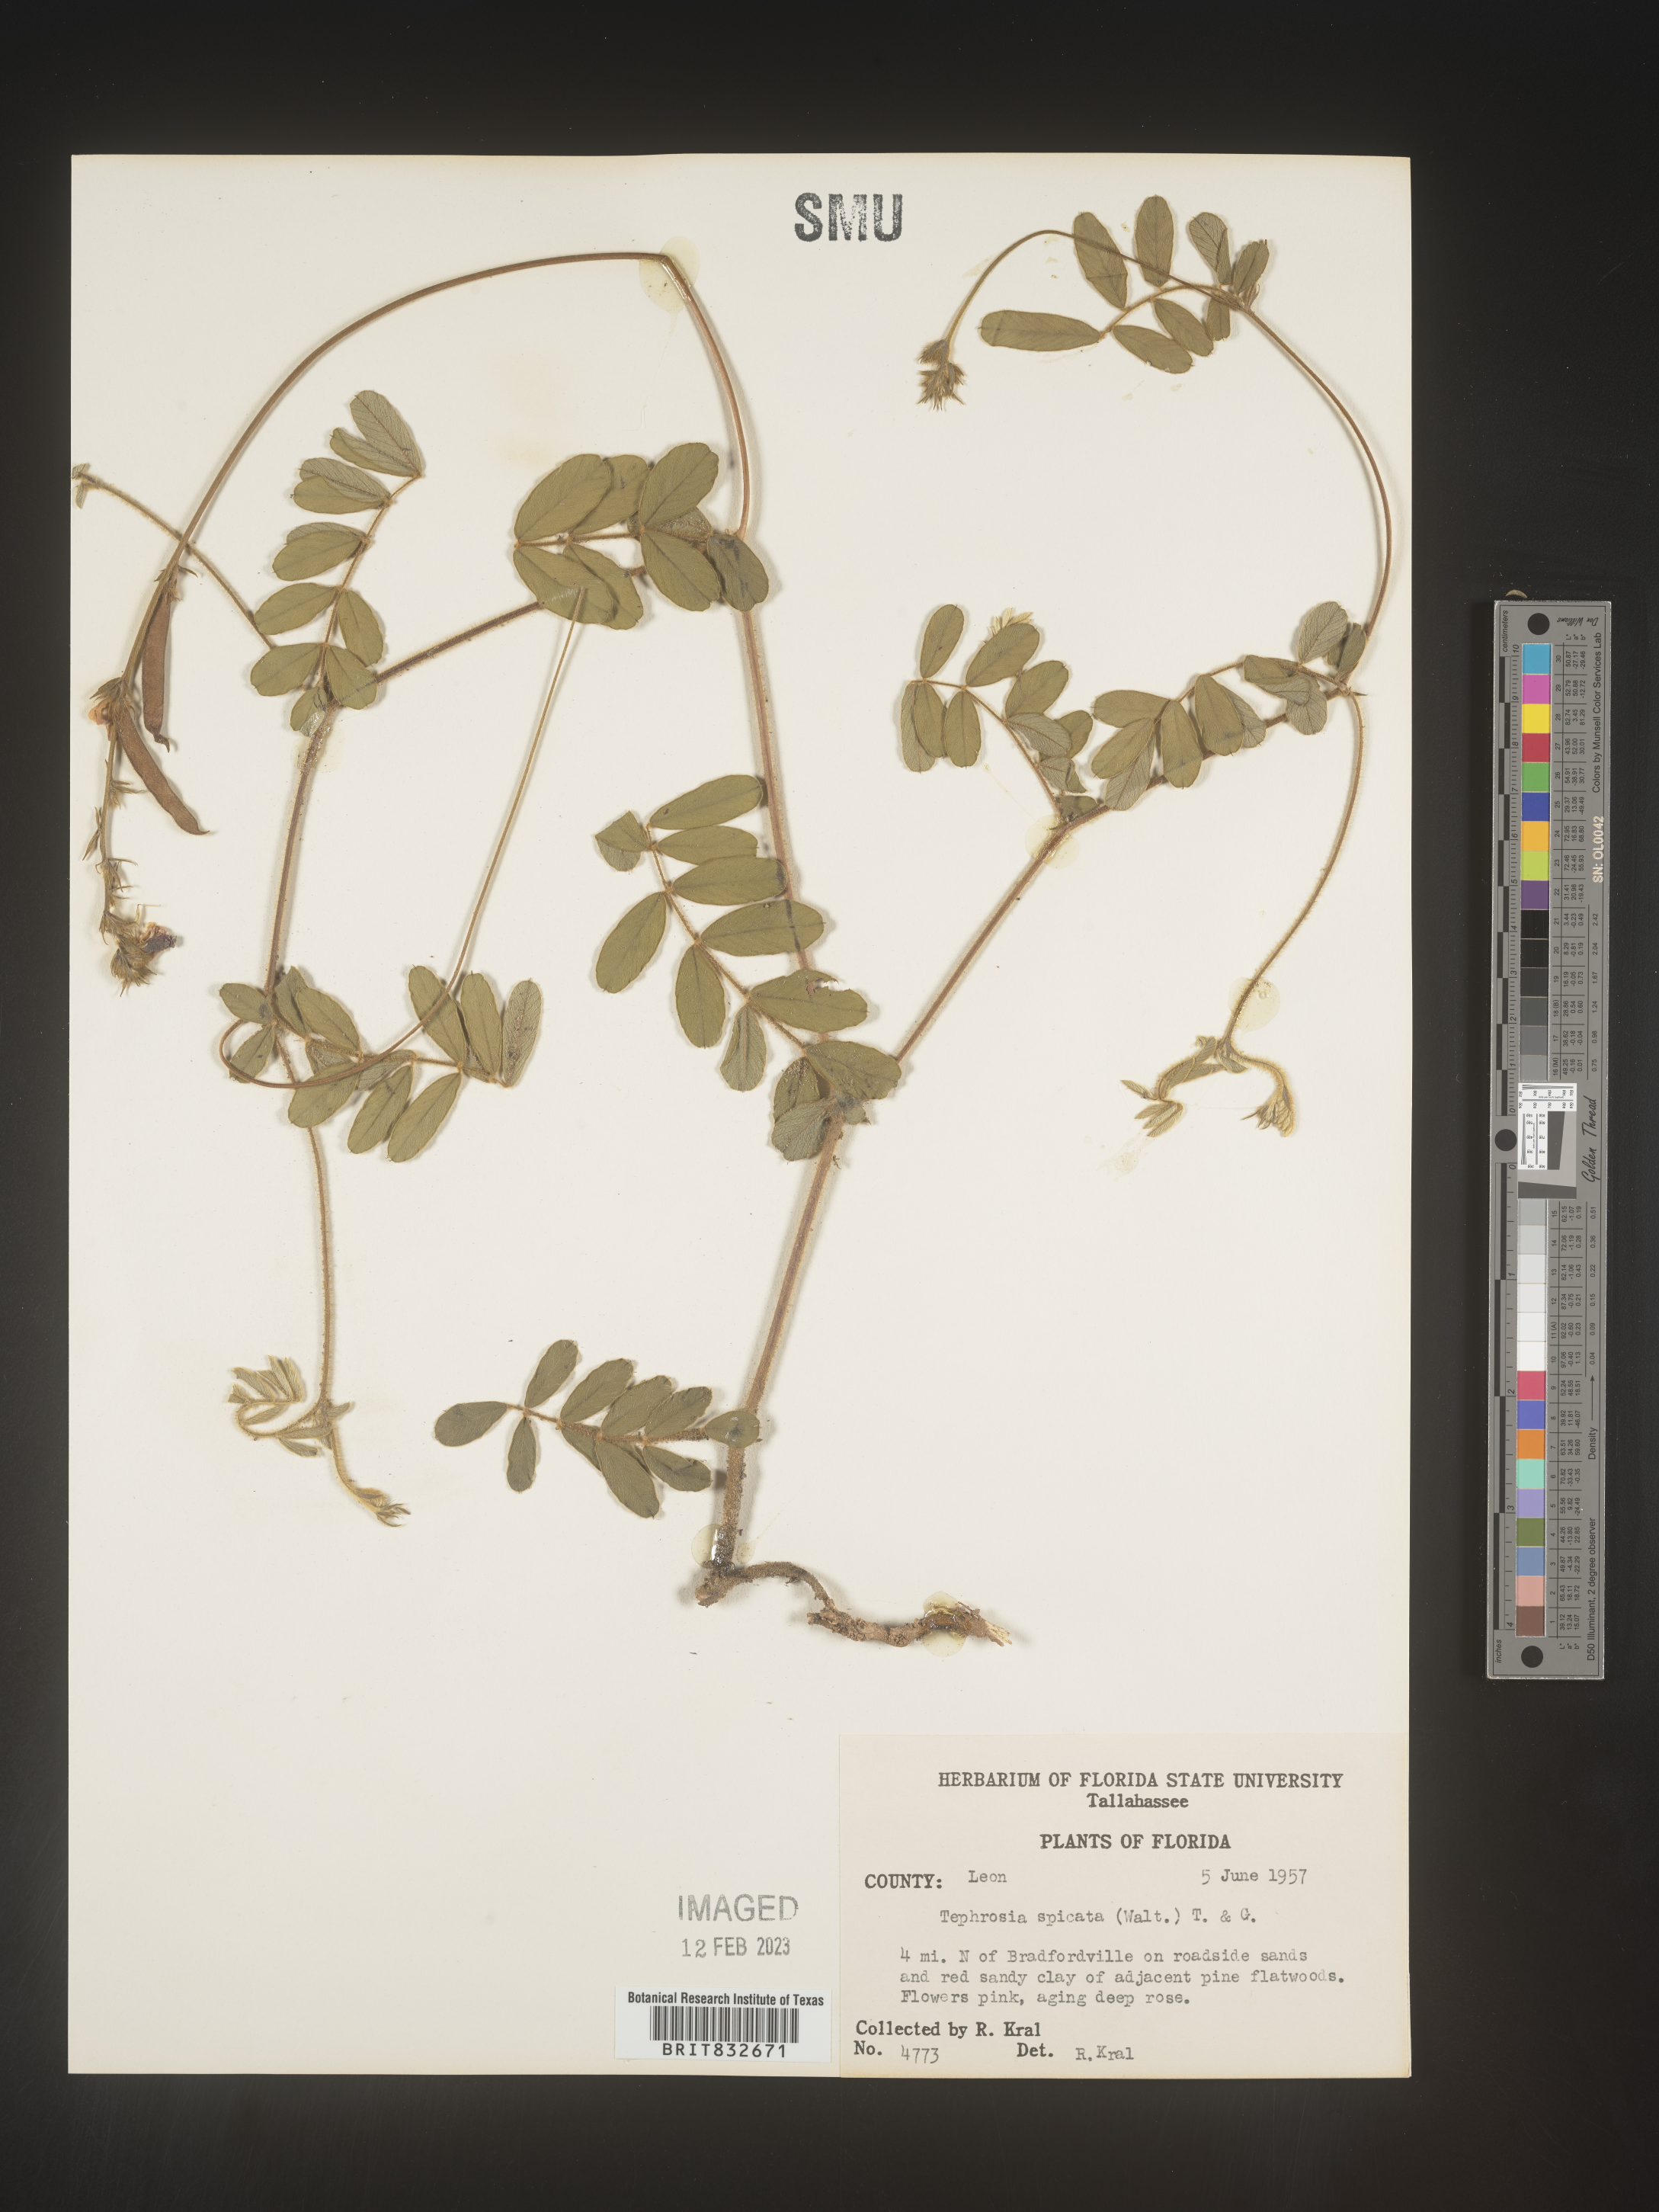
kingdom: Plantae
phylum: Tracheophyta
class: Magnoliopsida
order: Fabales
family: Fabaceae
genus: Tephrosia
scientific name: Tephrosia spicata
